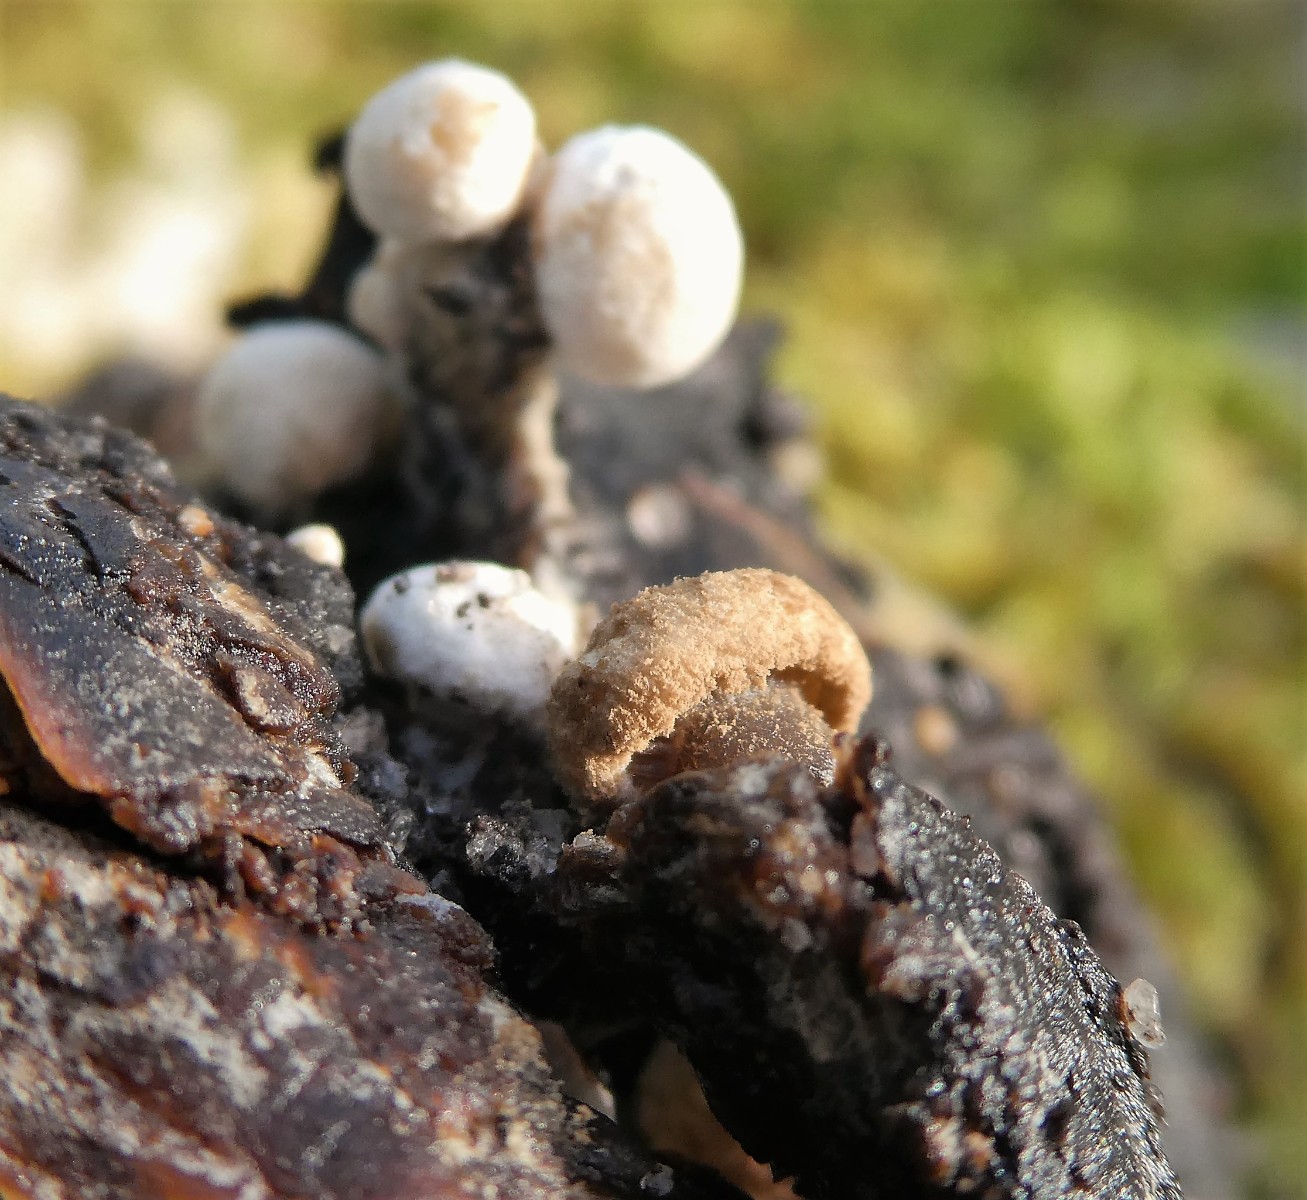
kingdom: Fungi
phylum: Basidiomycota
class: Agaricomycetes
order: Agaricales
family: Lyophyllaceae
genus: Asterophora
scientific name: Asterophora lycoperdoides
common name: brunpudret snyltehat
